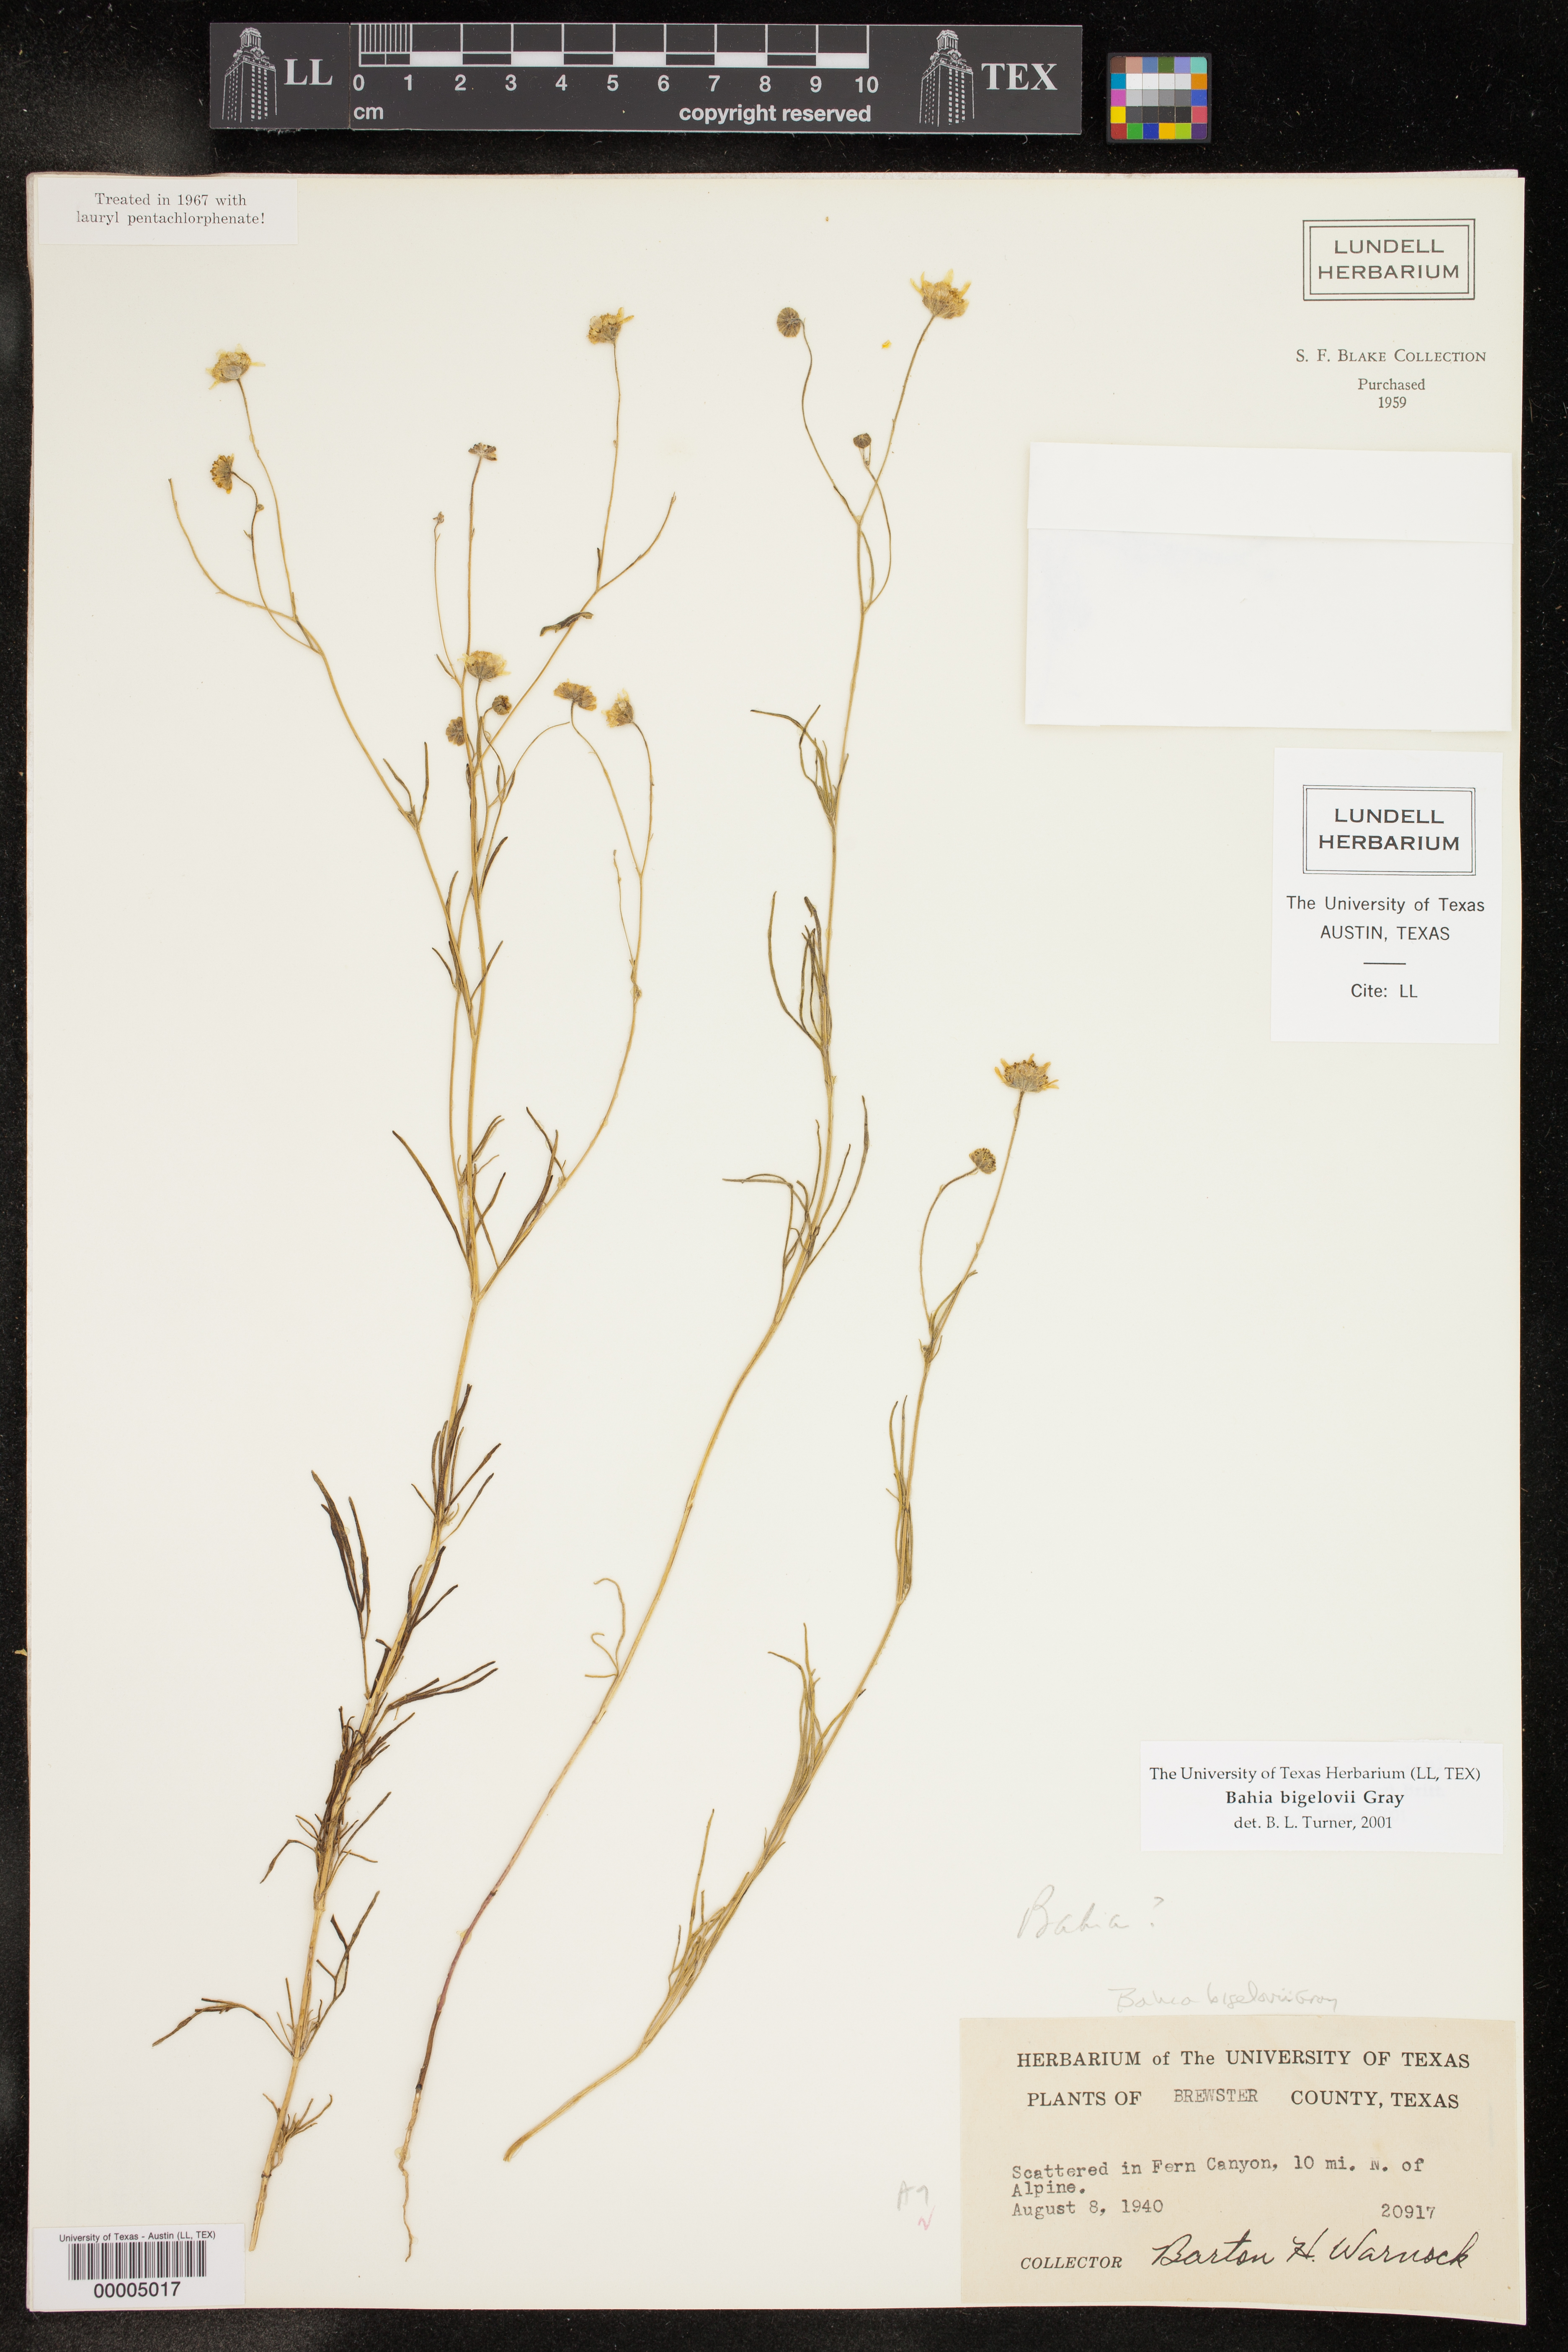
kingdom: Plantae
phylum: Tracheophyta
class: Magnoliopsida
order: Asterales
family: Asteraceae
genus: Picradeniopsis
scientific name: Picradeniopsis bigelovii
